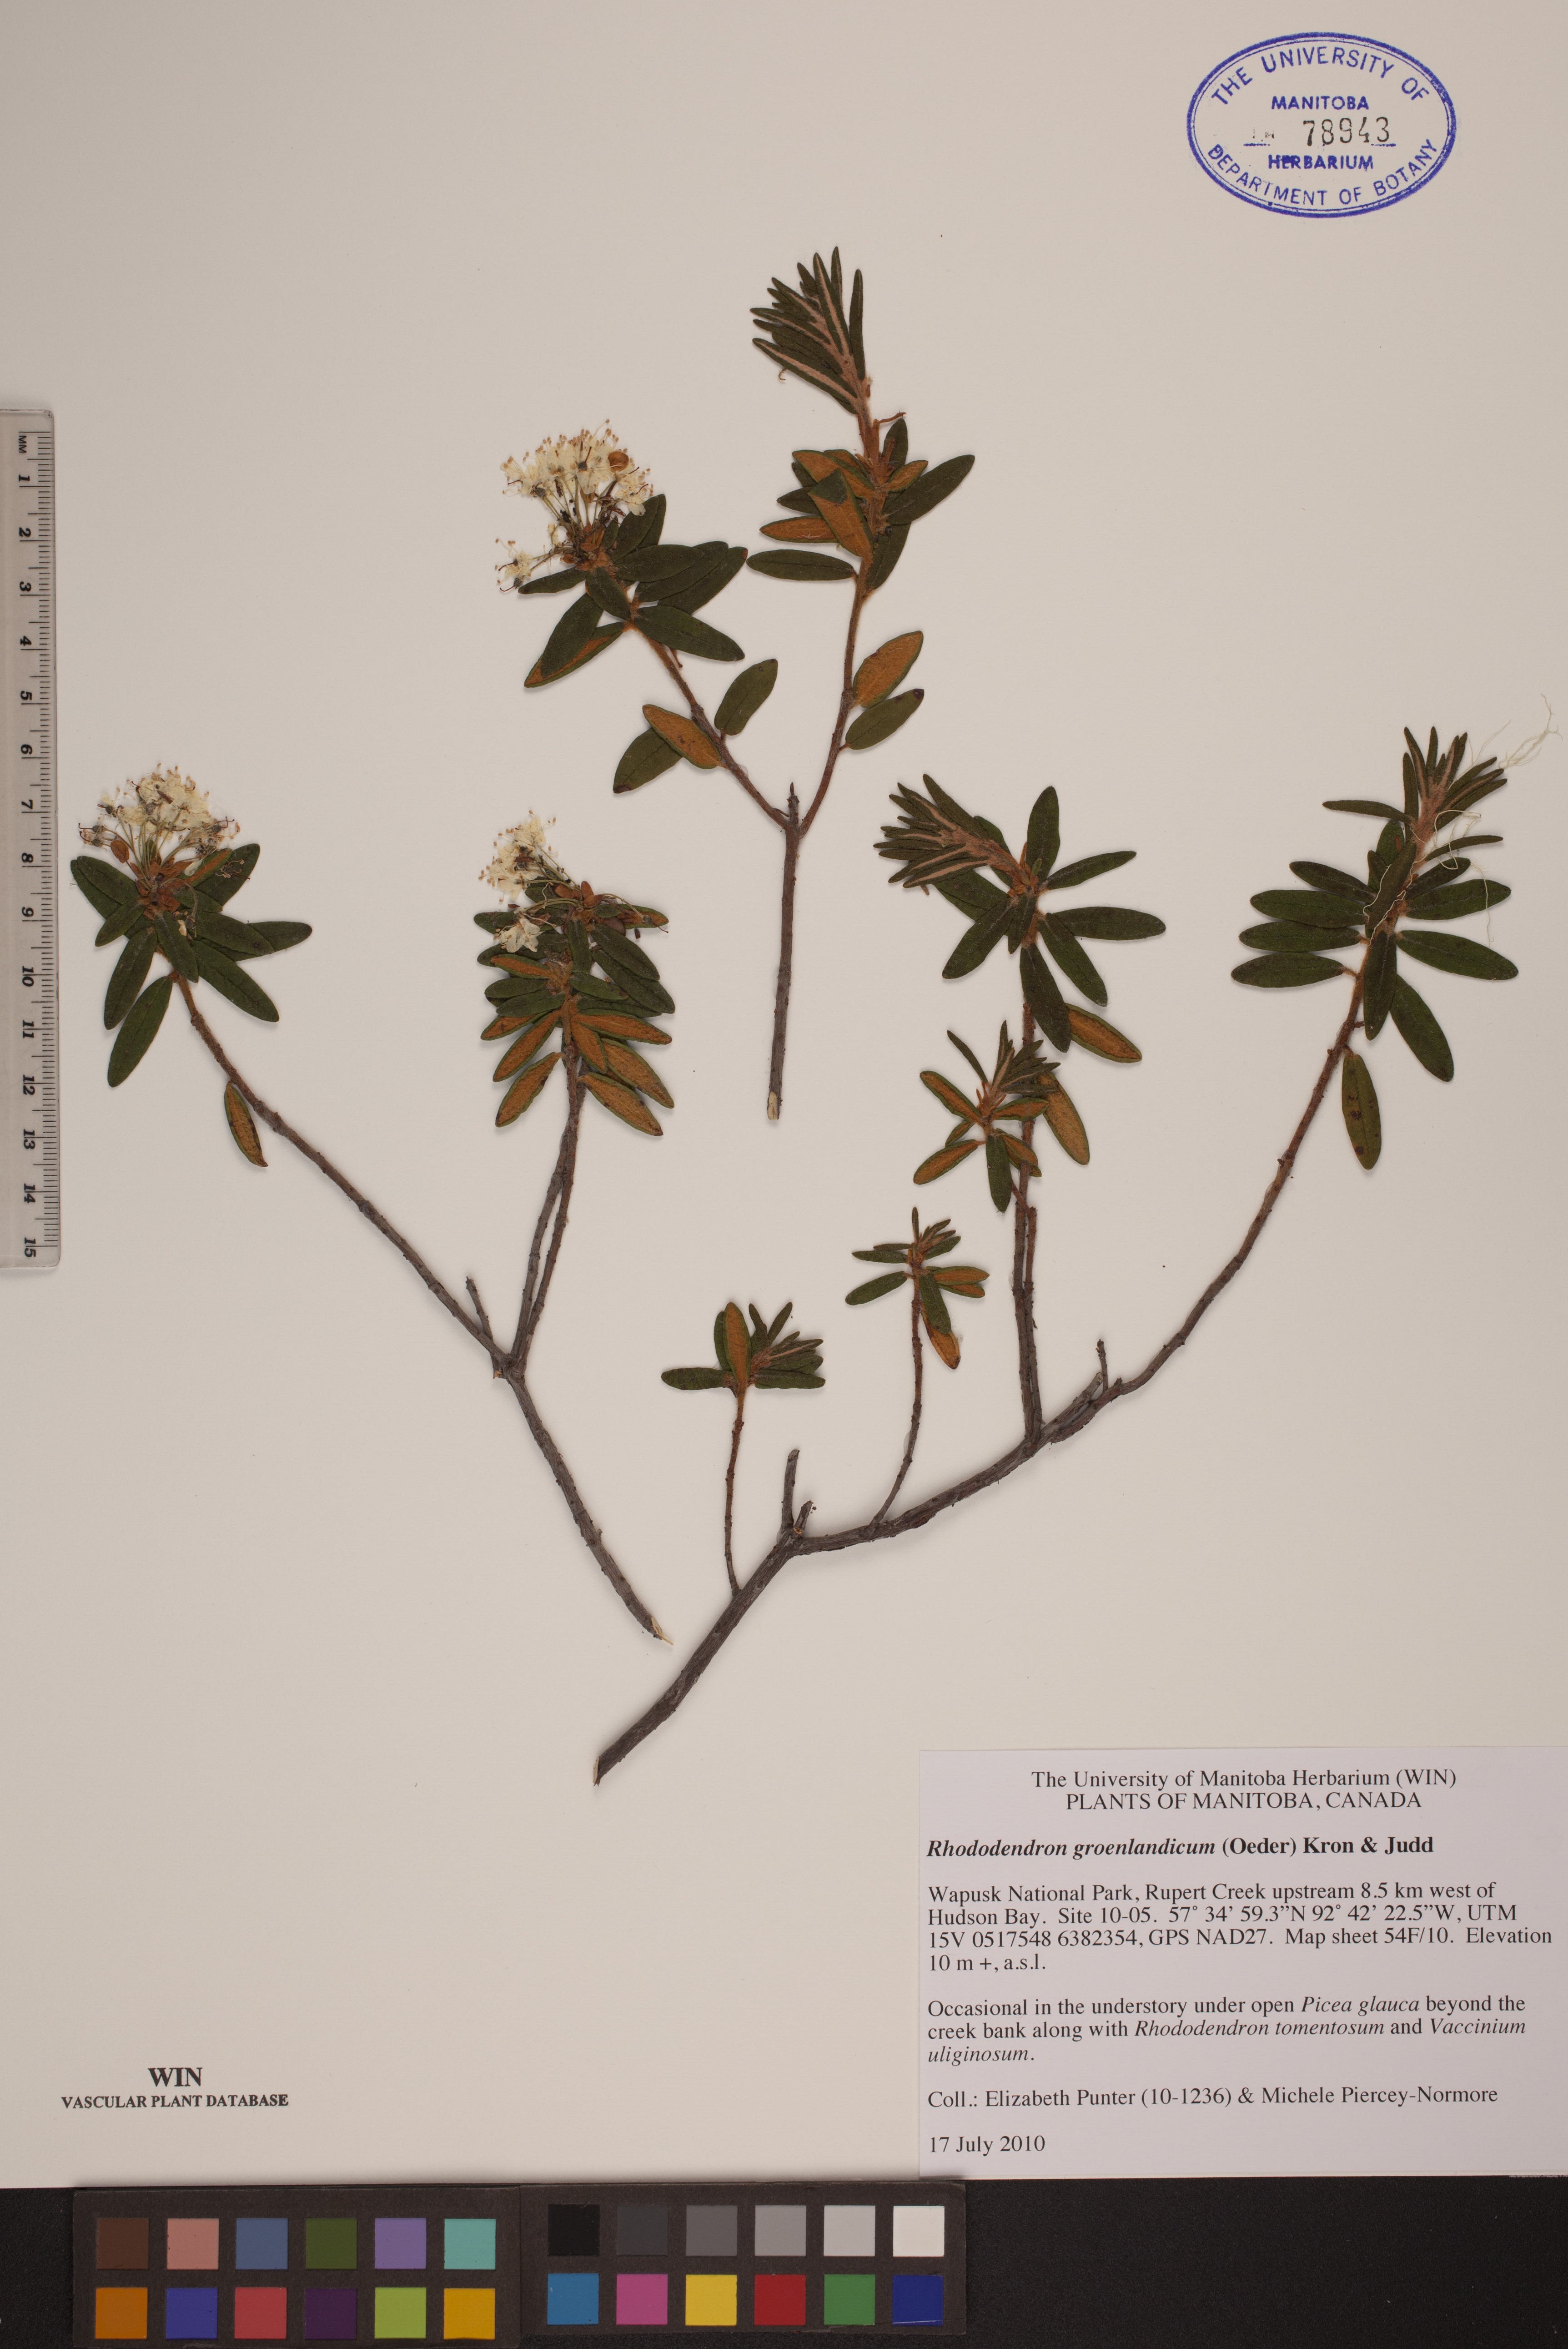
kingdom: Plantae
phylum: Tracheophyta
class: Magnoliopsida
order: Ericales
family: Ericaceae
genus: Rhododendron
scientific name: Rhododendron groenlandicum
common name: Bog labrador tea
